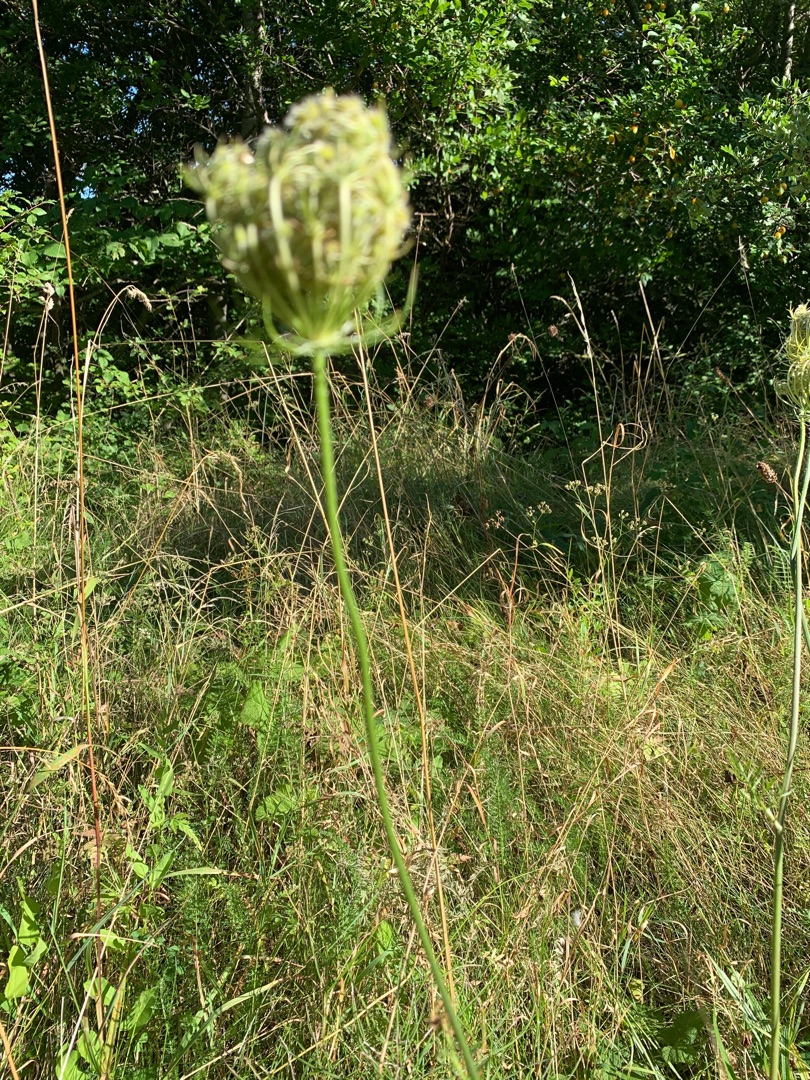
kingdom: Plantae
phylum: Tracheophyta
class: Magnoliopsida
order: Apiales
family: Apiaceae
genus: Daucus
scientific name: Daucus carota
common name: Gulerod
